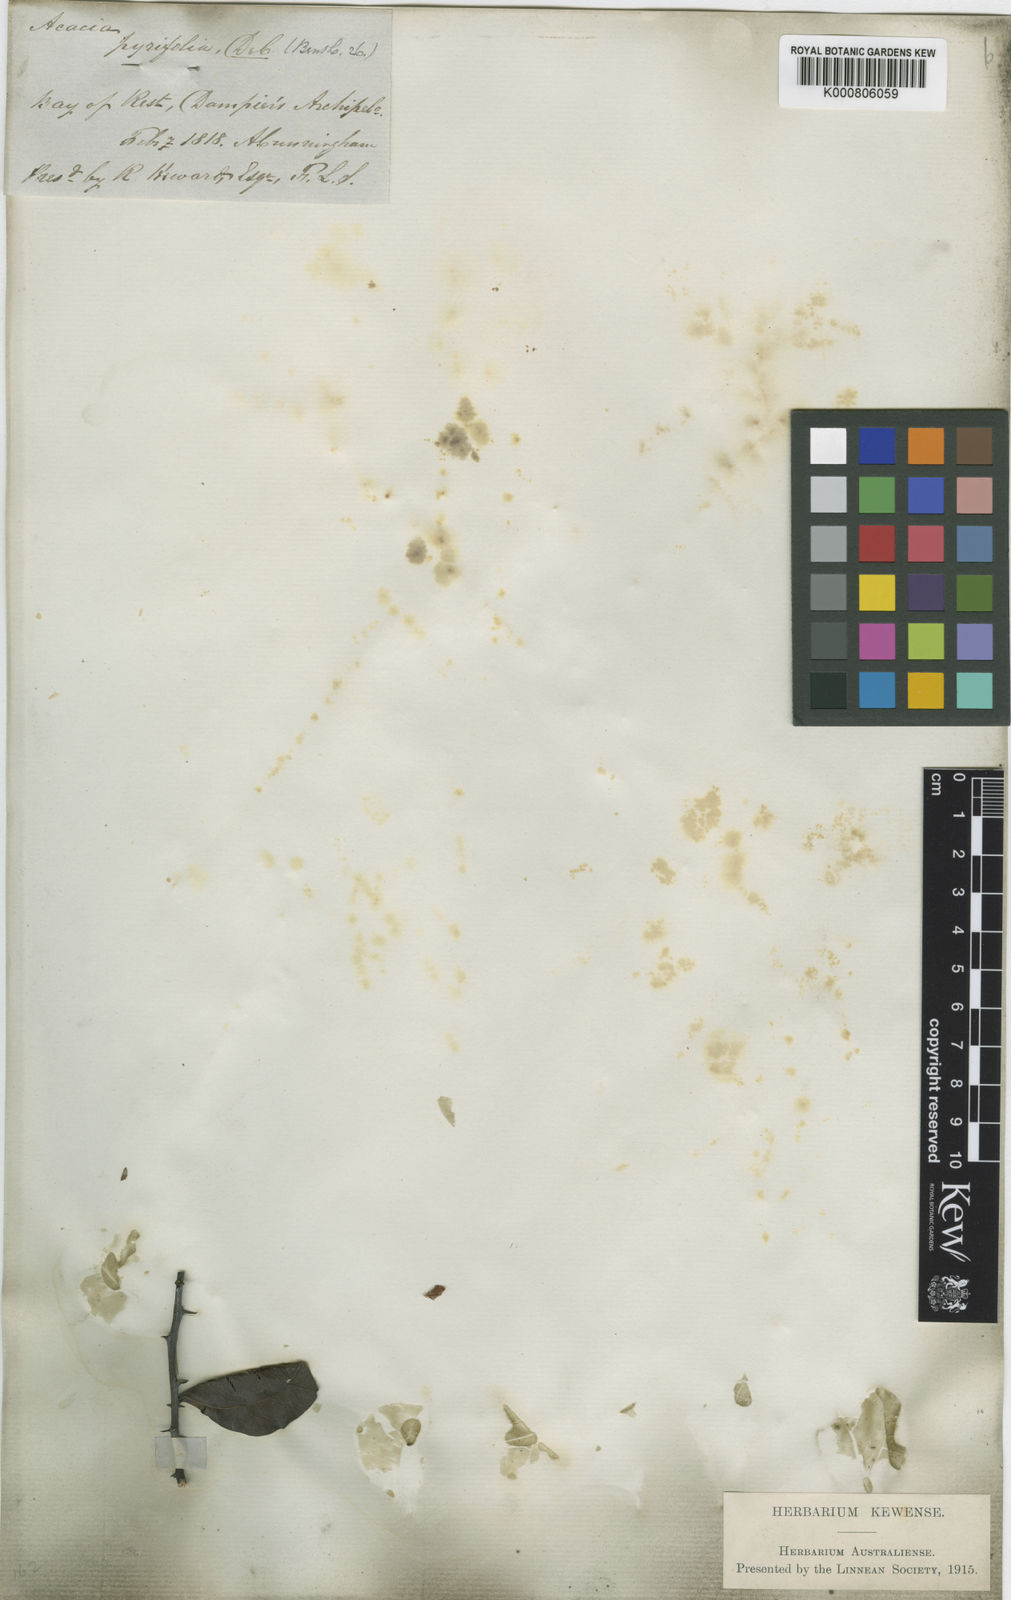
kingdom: Plantae
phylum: Tracheophyta
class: Magnoliopsida
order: Fabales
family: Fabaceae
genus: Acacia
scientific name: Acacia pyrifolia
